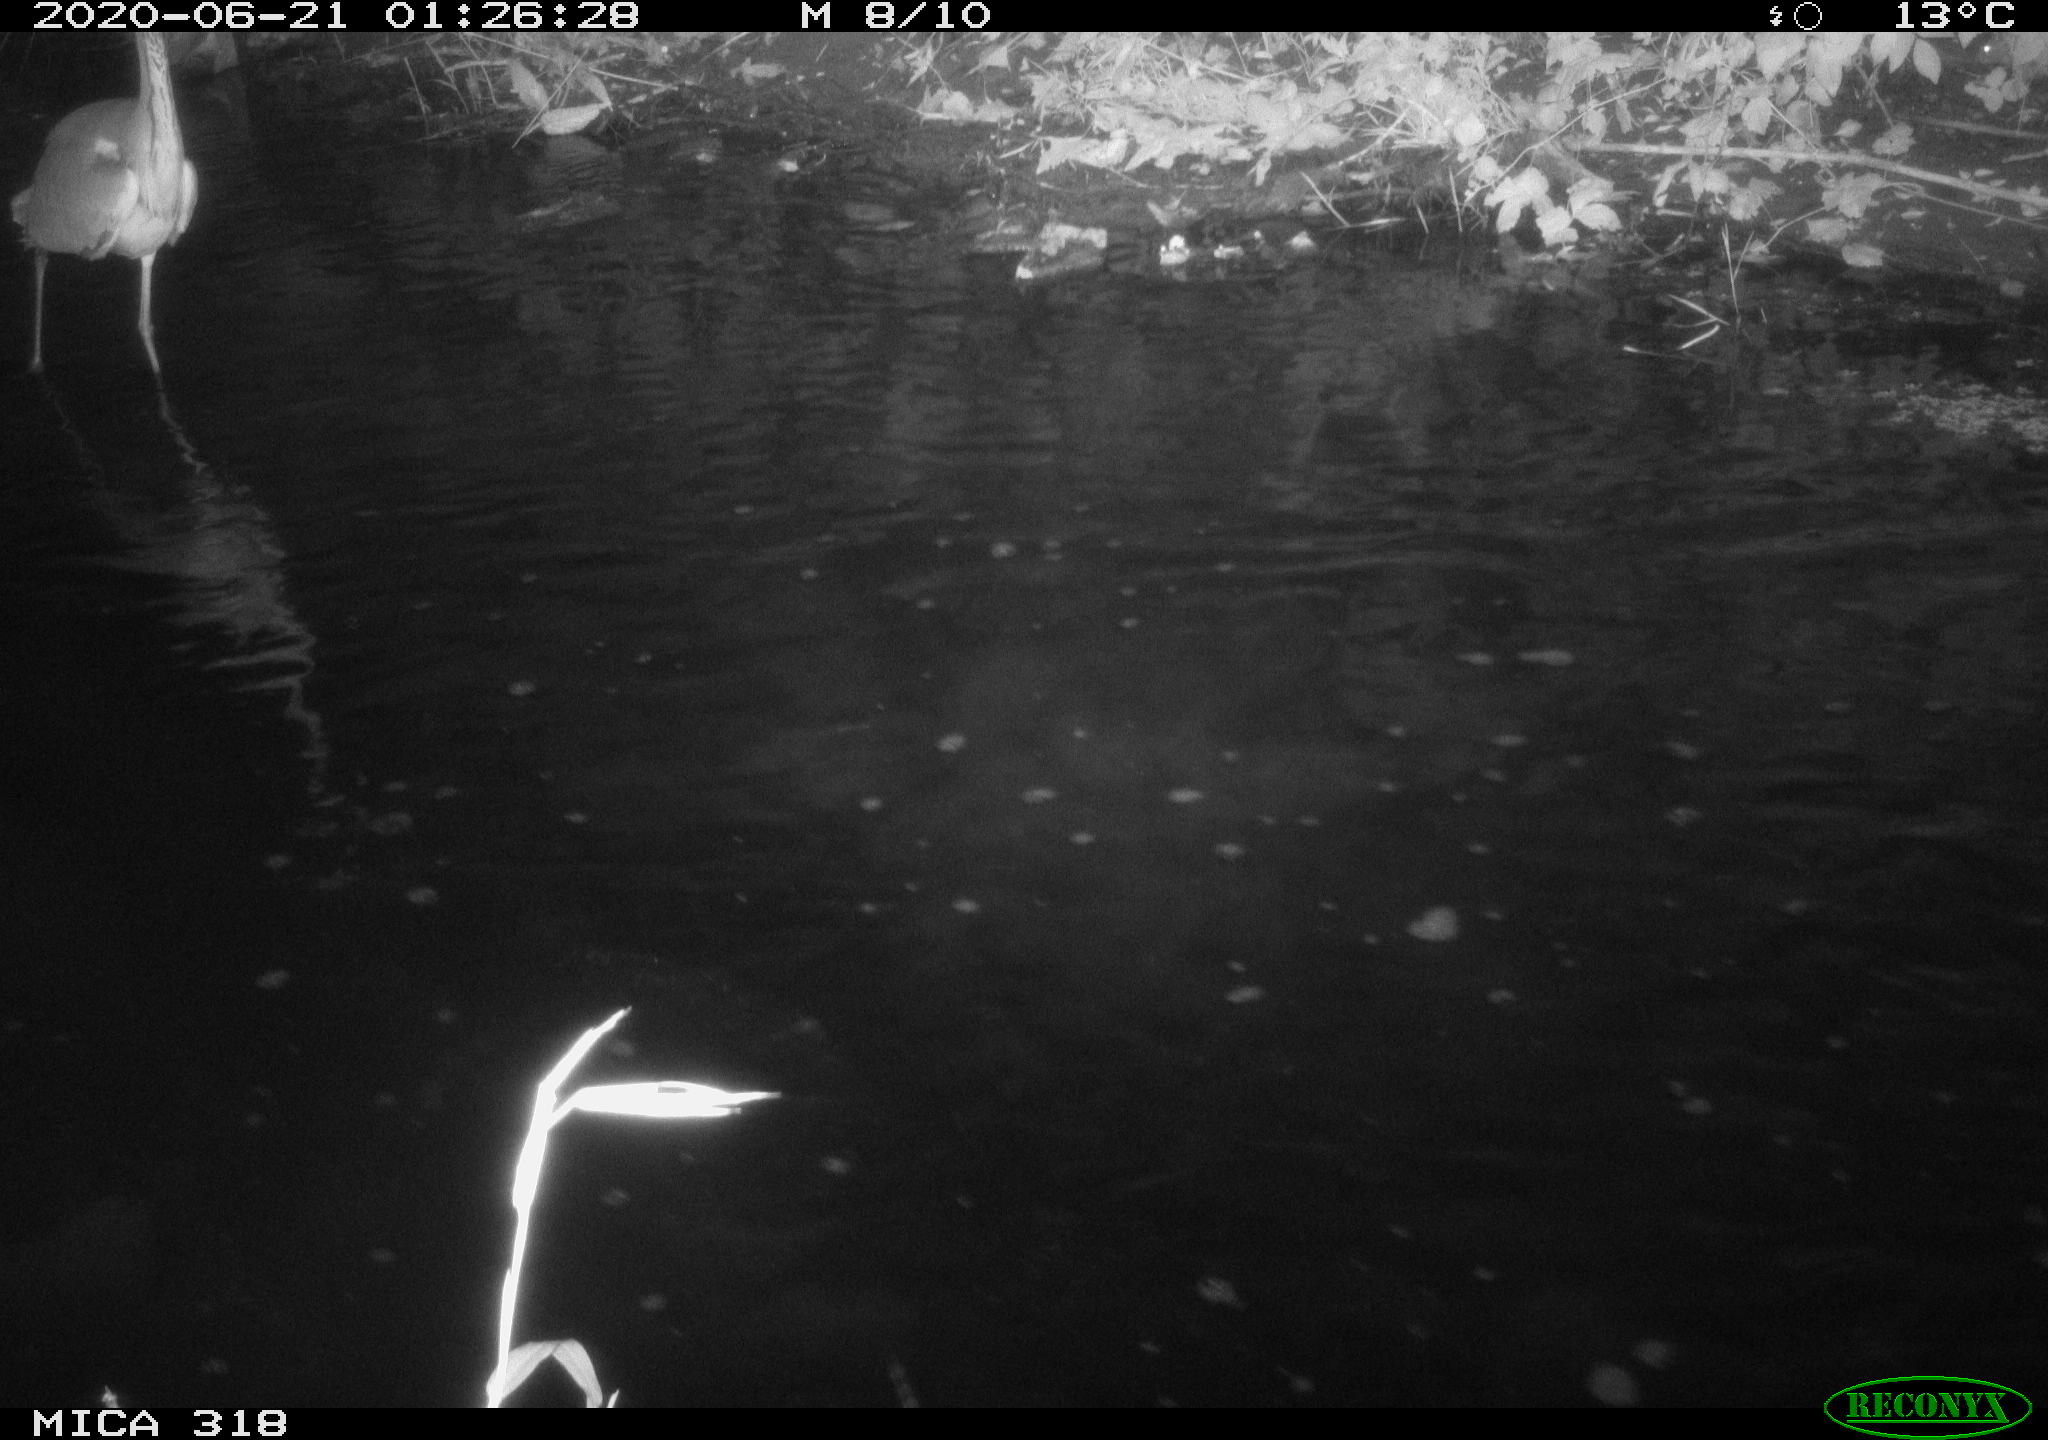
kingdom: Animalia
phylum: Chordata
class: Aves
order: Pelecaniformes
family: Ardeidae
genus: Ardea
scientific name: Ardea cinerea
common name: Grey heron
